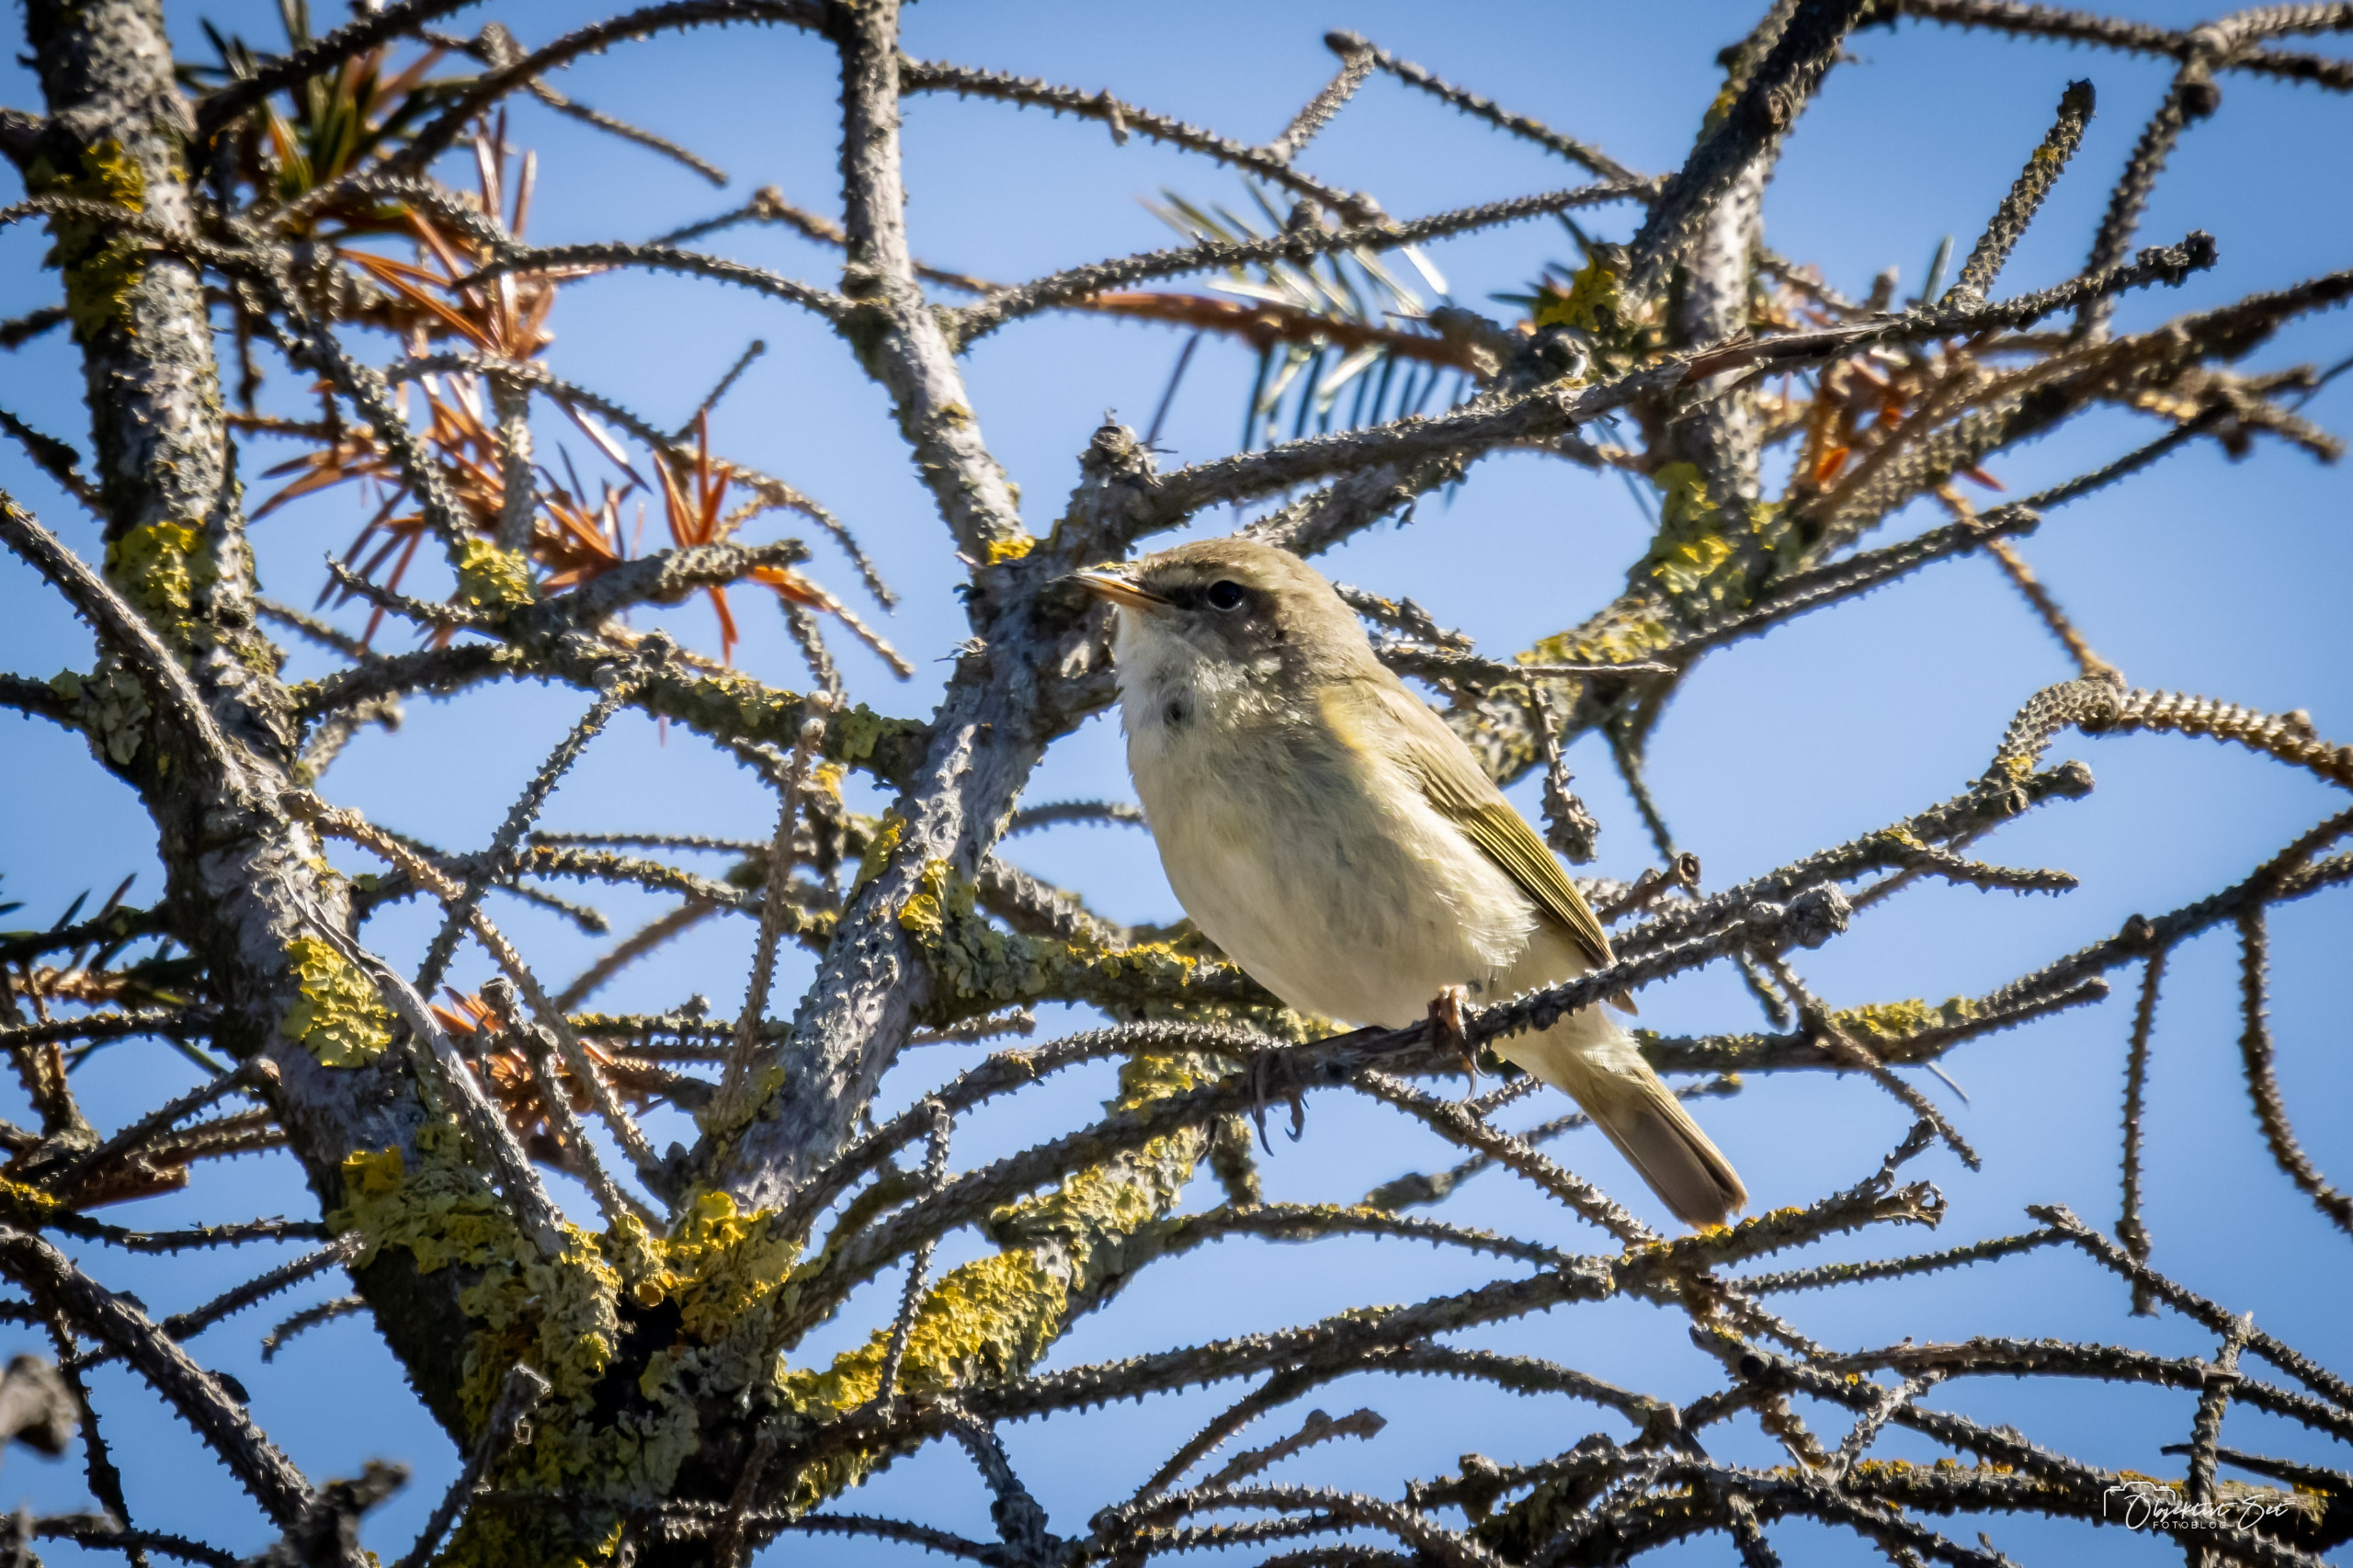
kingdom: Animalia
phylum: Chordata
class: Aves
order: Passeriformes
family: Phylloscopidae
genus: Phylloscopus
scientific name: Phylloscopus collybita
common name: Gransanger
